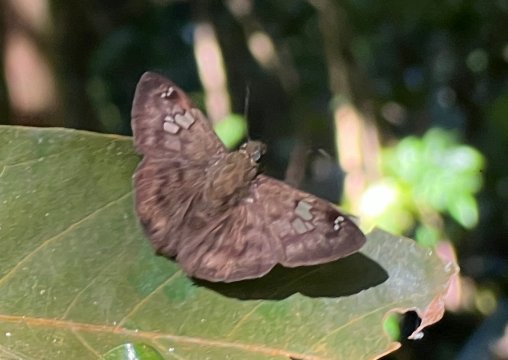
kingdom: Animalia
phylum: Arthropoda
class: Insecta
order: Lepidoptera
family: Hesperiidae
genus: Telemiades
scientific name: Telemiades antiope
